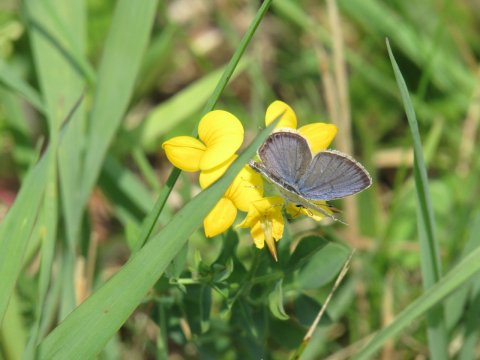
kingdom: Animalia
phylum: Arthropoda
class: Insecta
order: Lepidoptera
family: Lycaenidae
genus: Elkalyce
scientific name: Elkalyce comyntas
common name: Eastern Tailed-Blue
